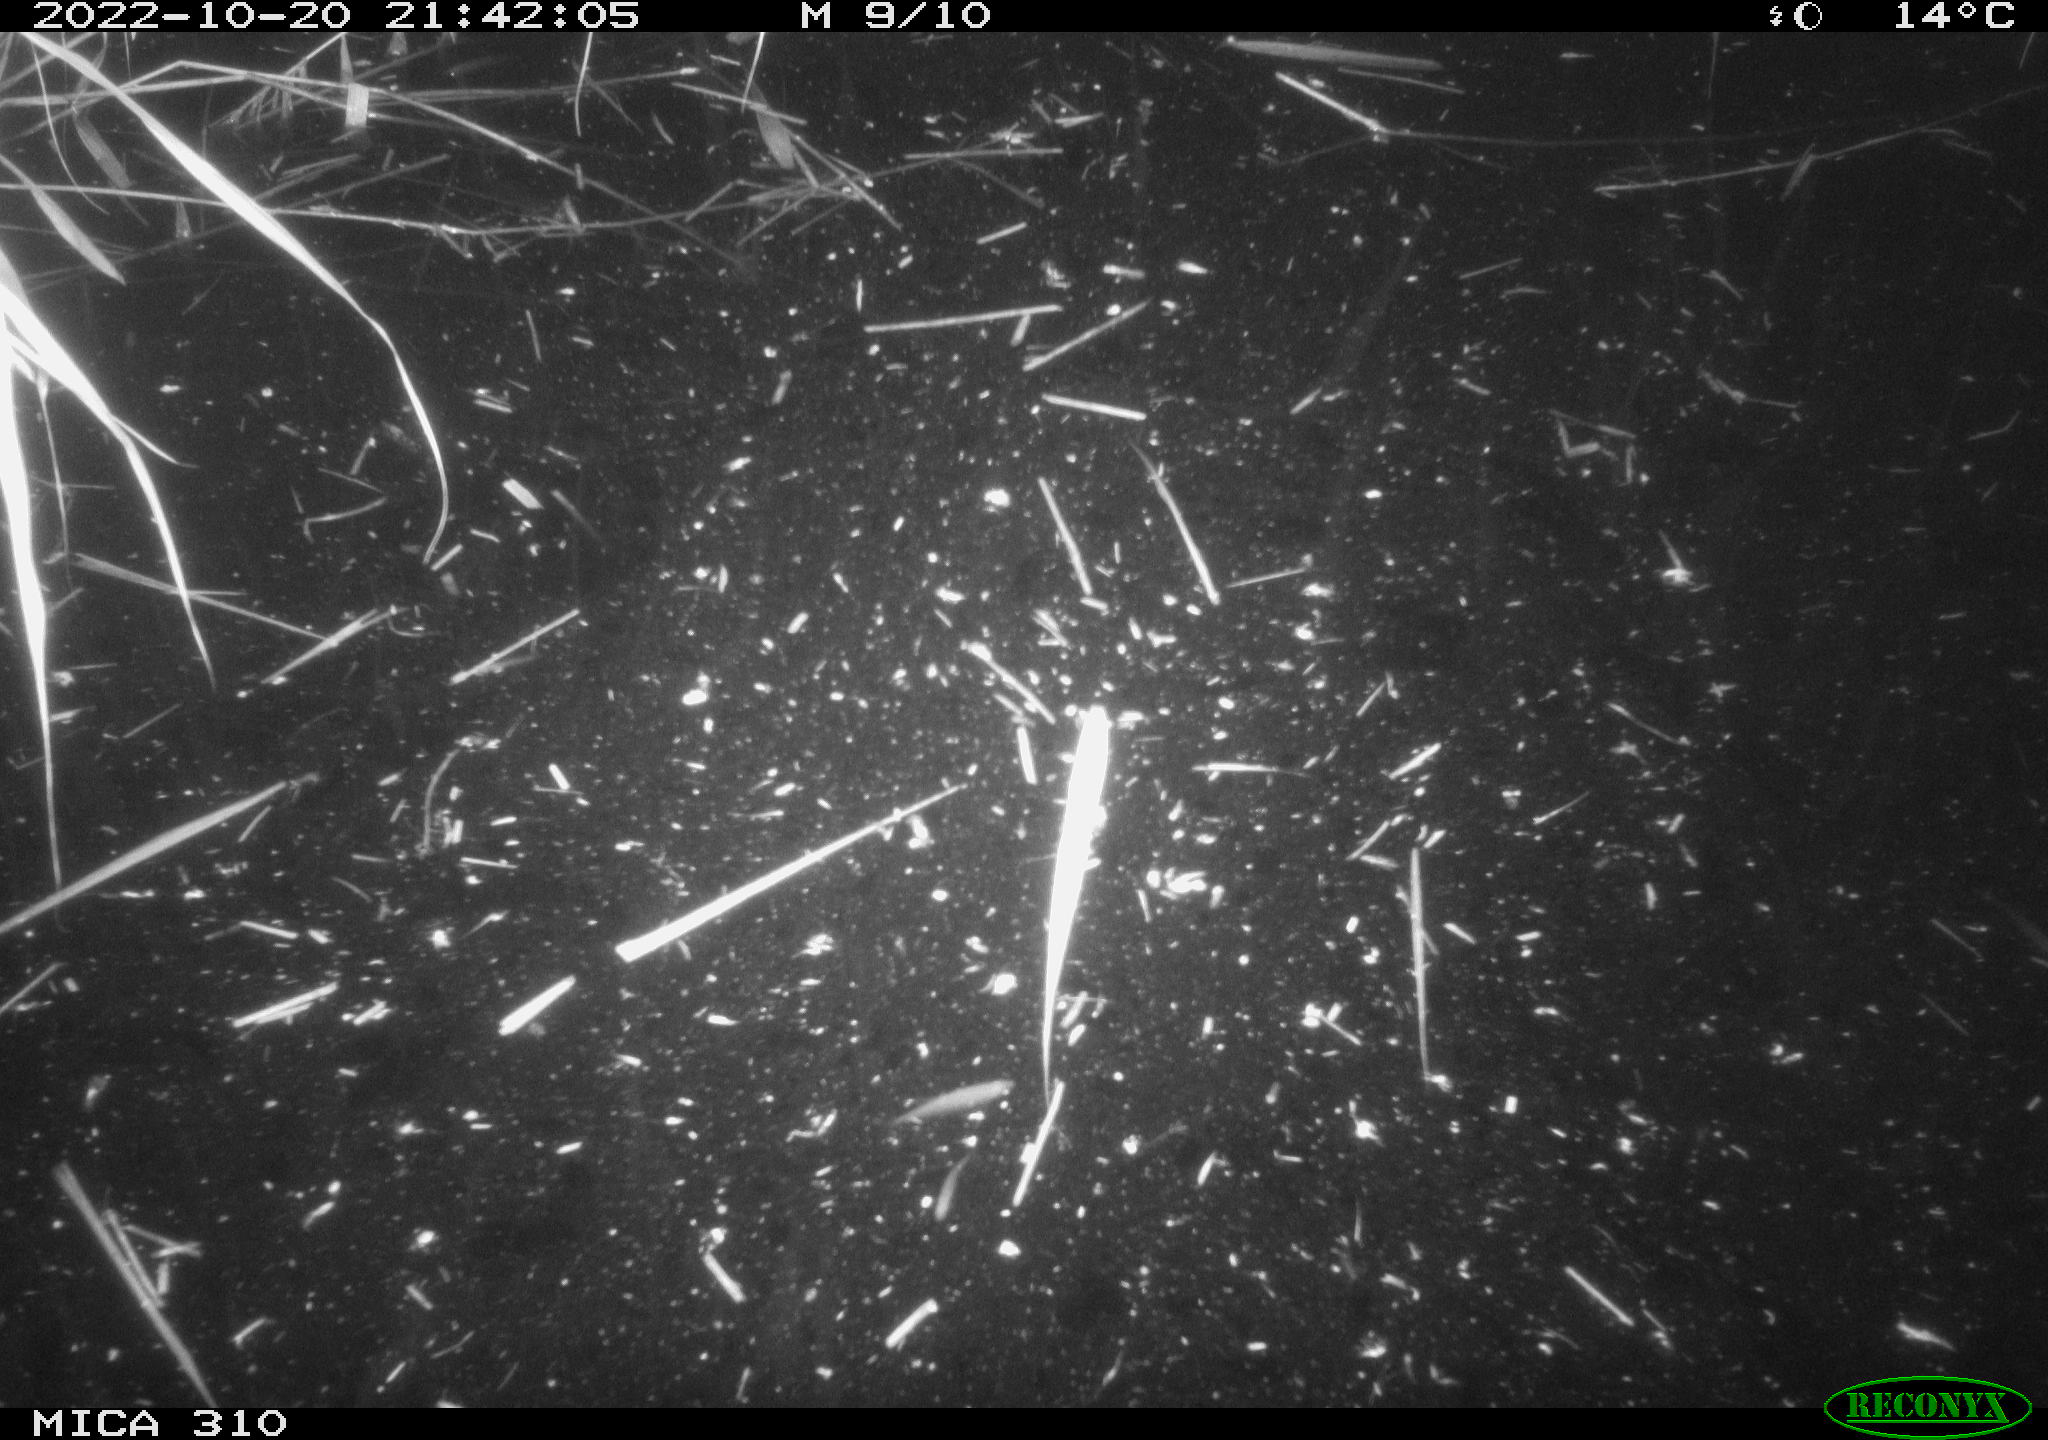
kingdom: Animalia
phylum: Chordata
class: Mammalia
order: Rodentia
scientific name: Rodentia
